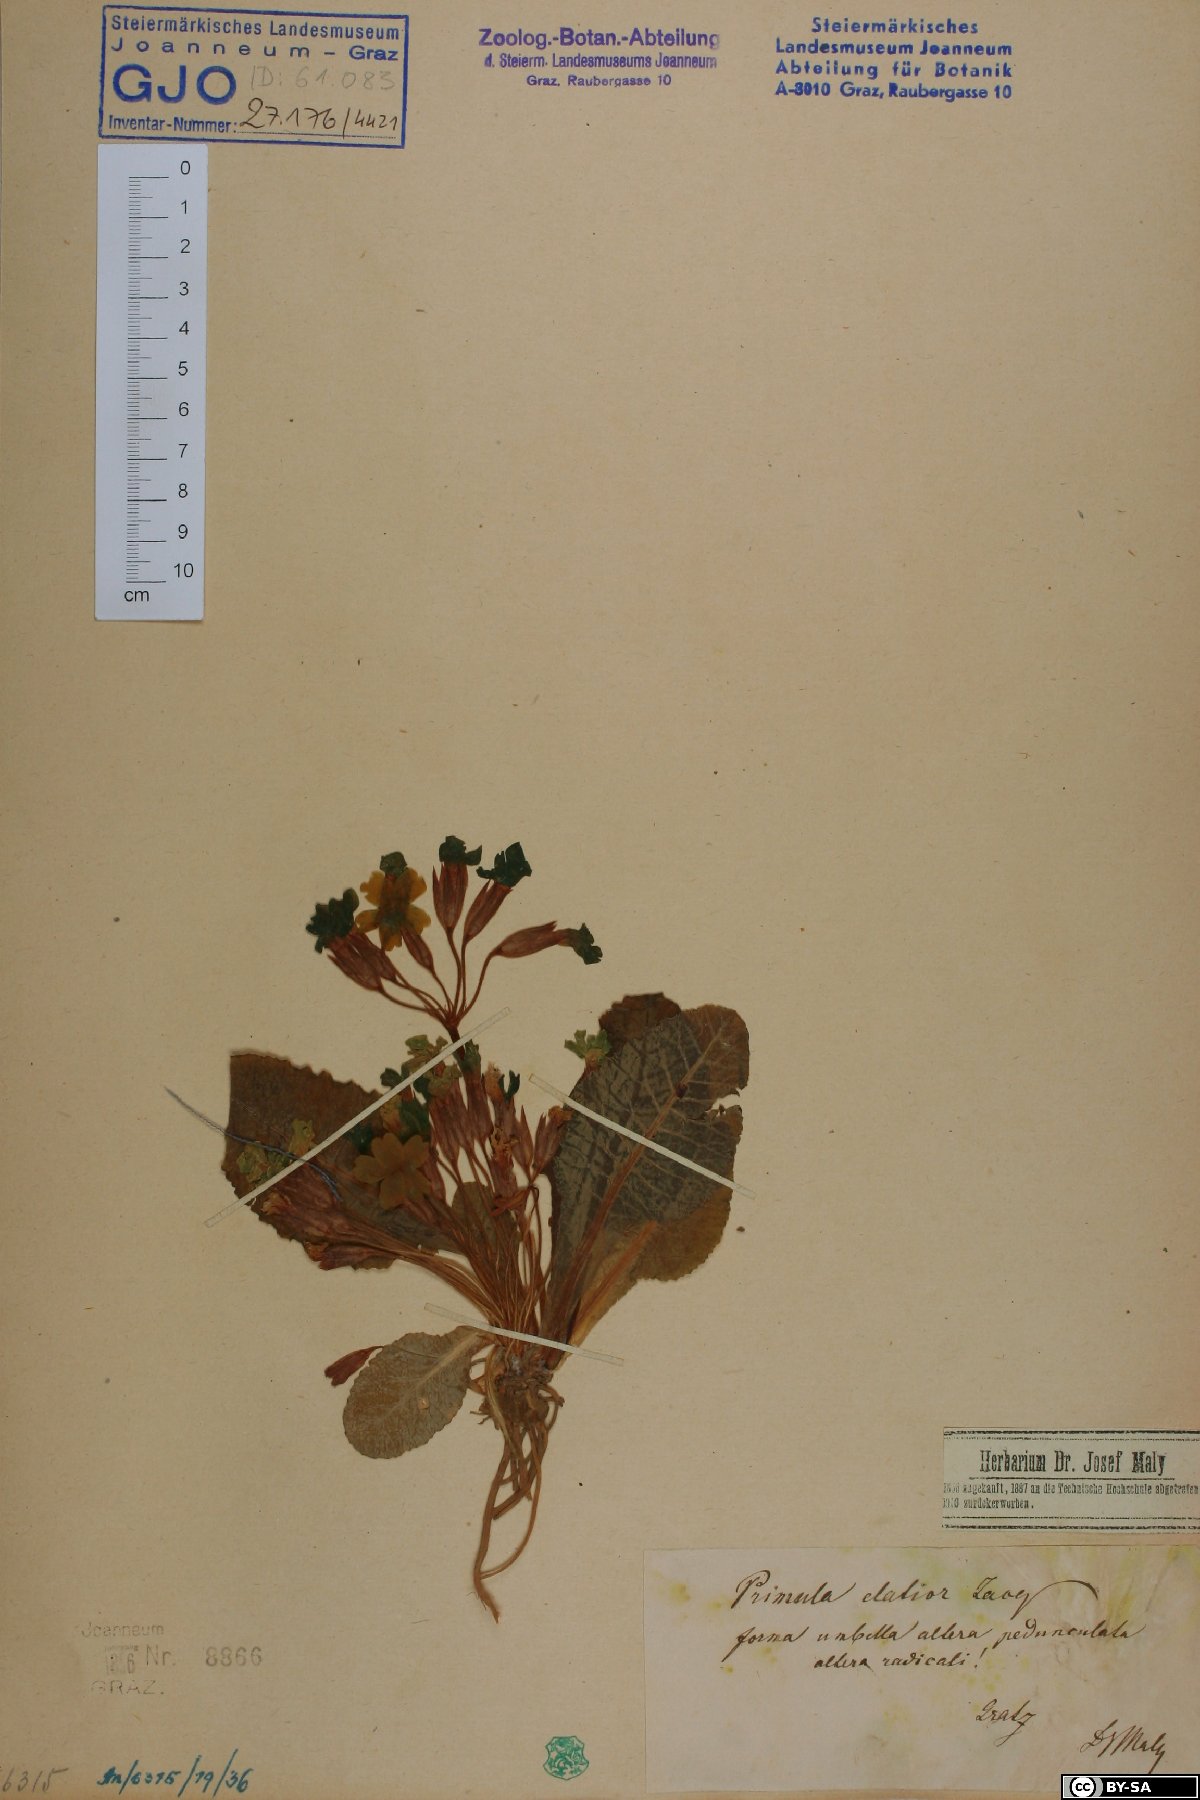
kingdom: Plantae
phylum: Tracheophyta
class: Magnoliopsida
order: Ericales
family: Primulaceae
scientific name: Primulaceae
